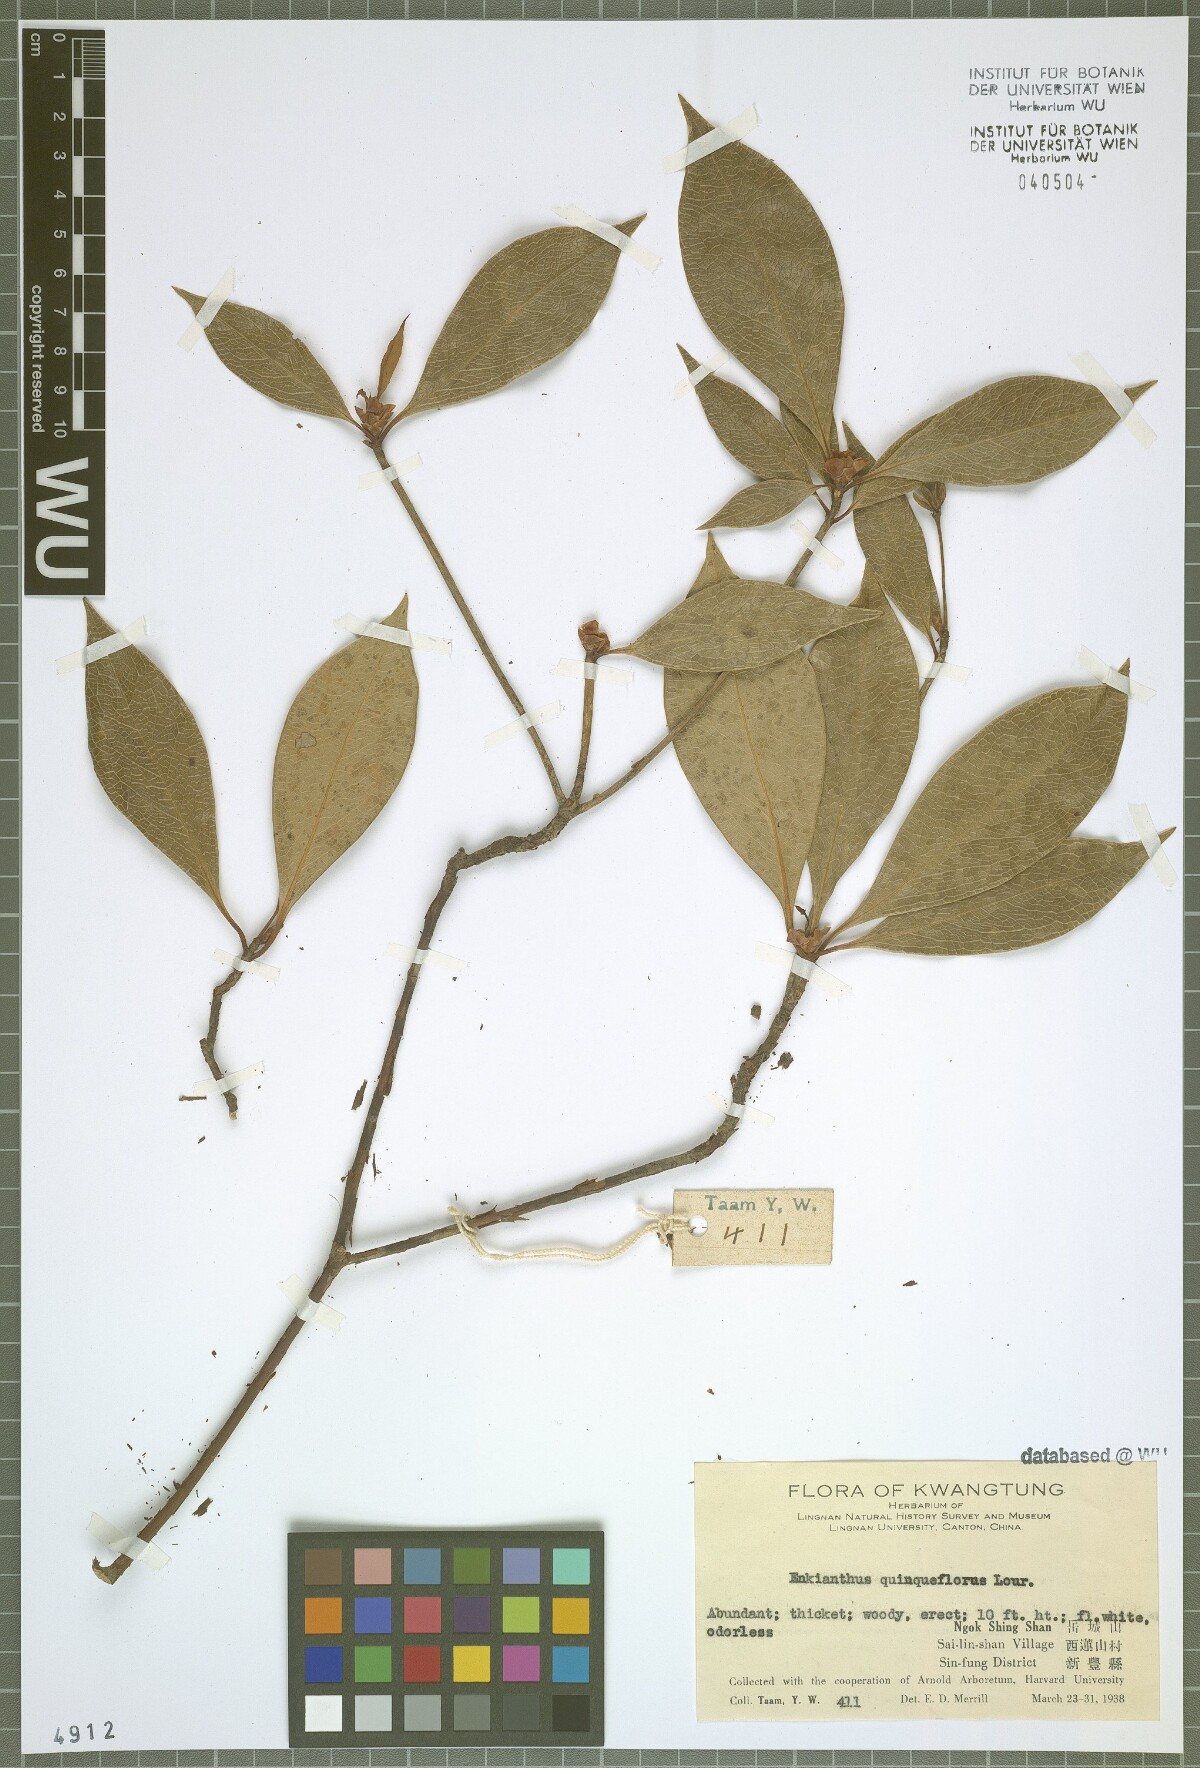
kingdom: Plantae
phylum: Tracheophyta
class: Magnoliopsida
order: Ericales
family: Ericaceae
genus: Enkianthus
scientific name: Enkianthus quinqueflorus
